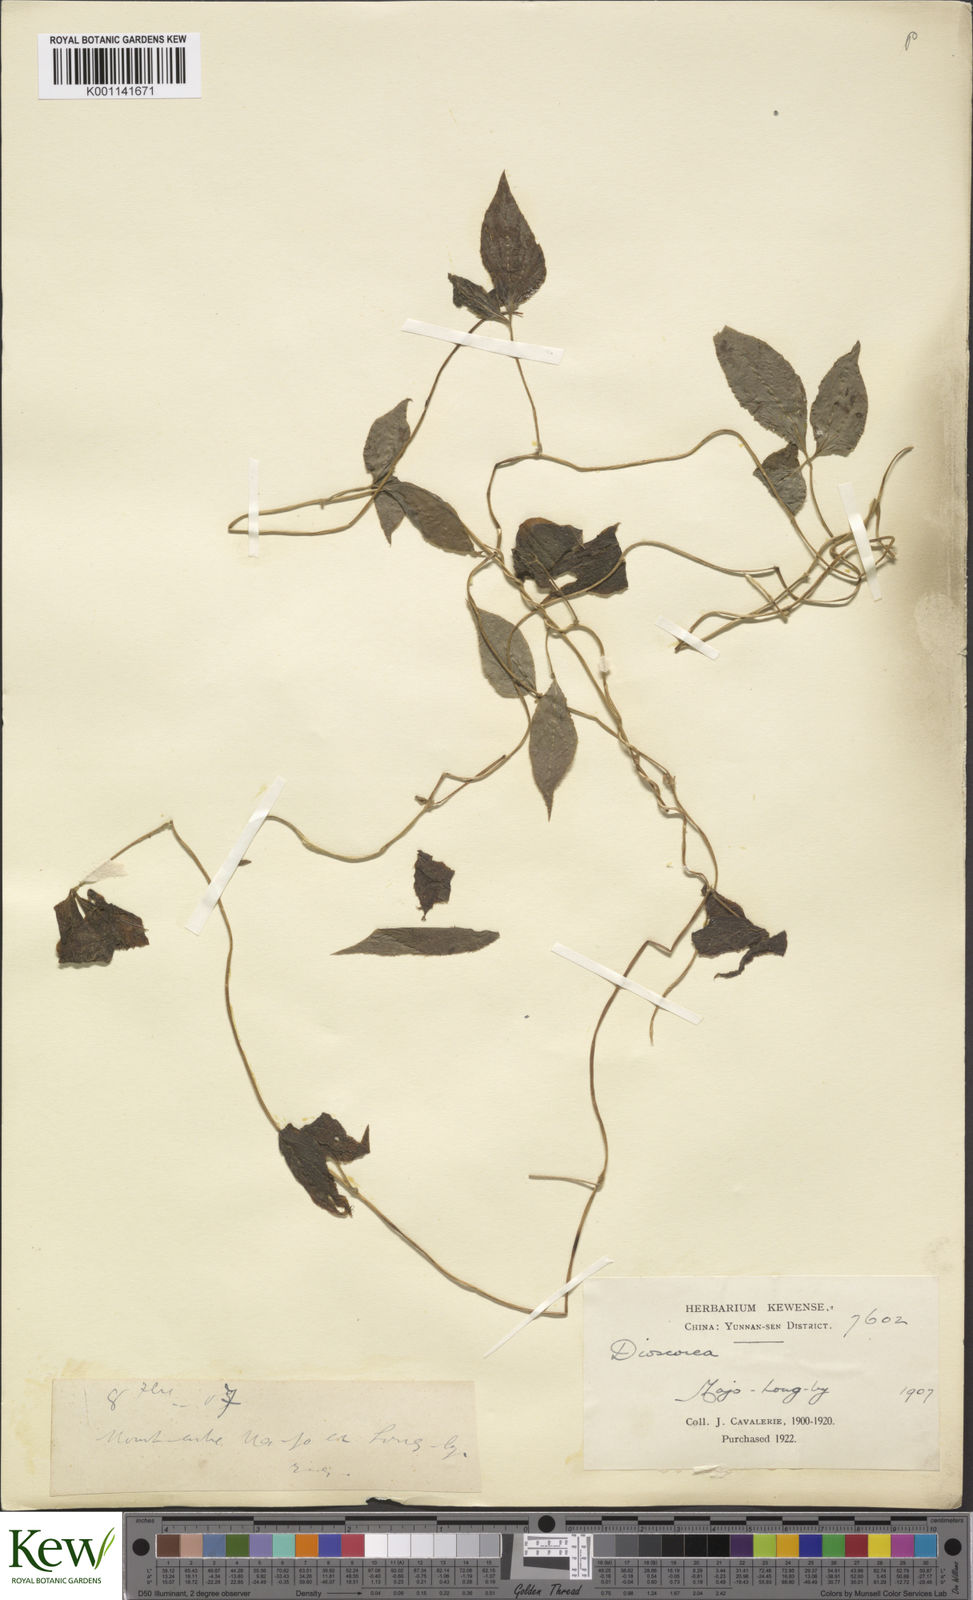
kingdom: Plantae
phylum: Tracheophyta
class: Liliopsida
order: Dioscoreales
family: Dioscoreaceae
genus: Dioscorea
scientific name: Dioscorea melanophyma
